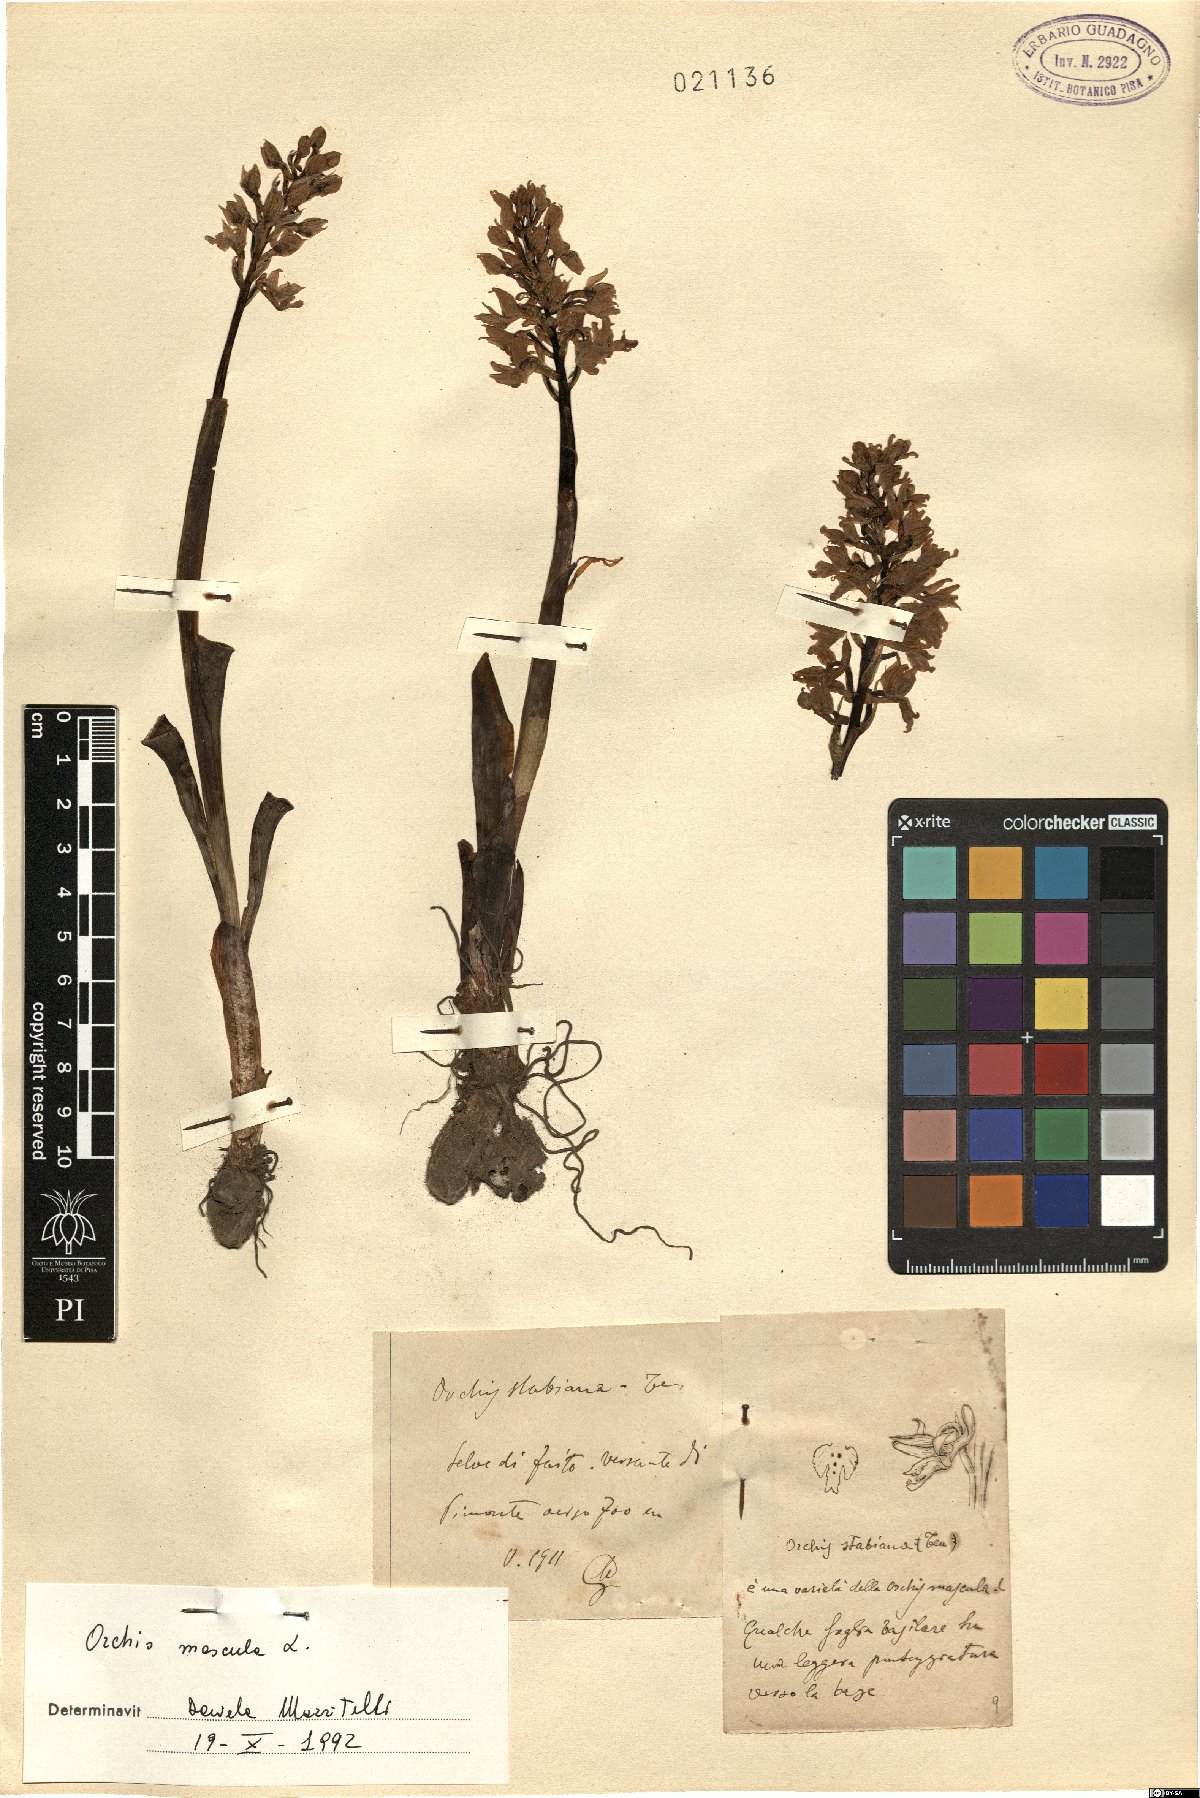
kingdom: Plantae
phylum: Tracheophyta
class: Liliopsida
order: Asparagales
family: Orchidaceae
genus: Orchis
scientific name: Orchis mascula
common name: Early-purple orchid
